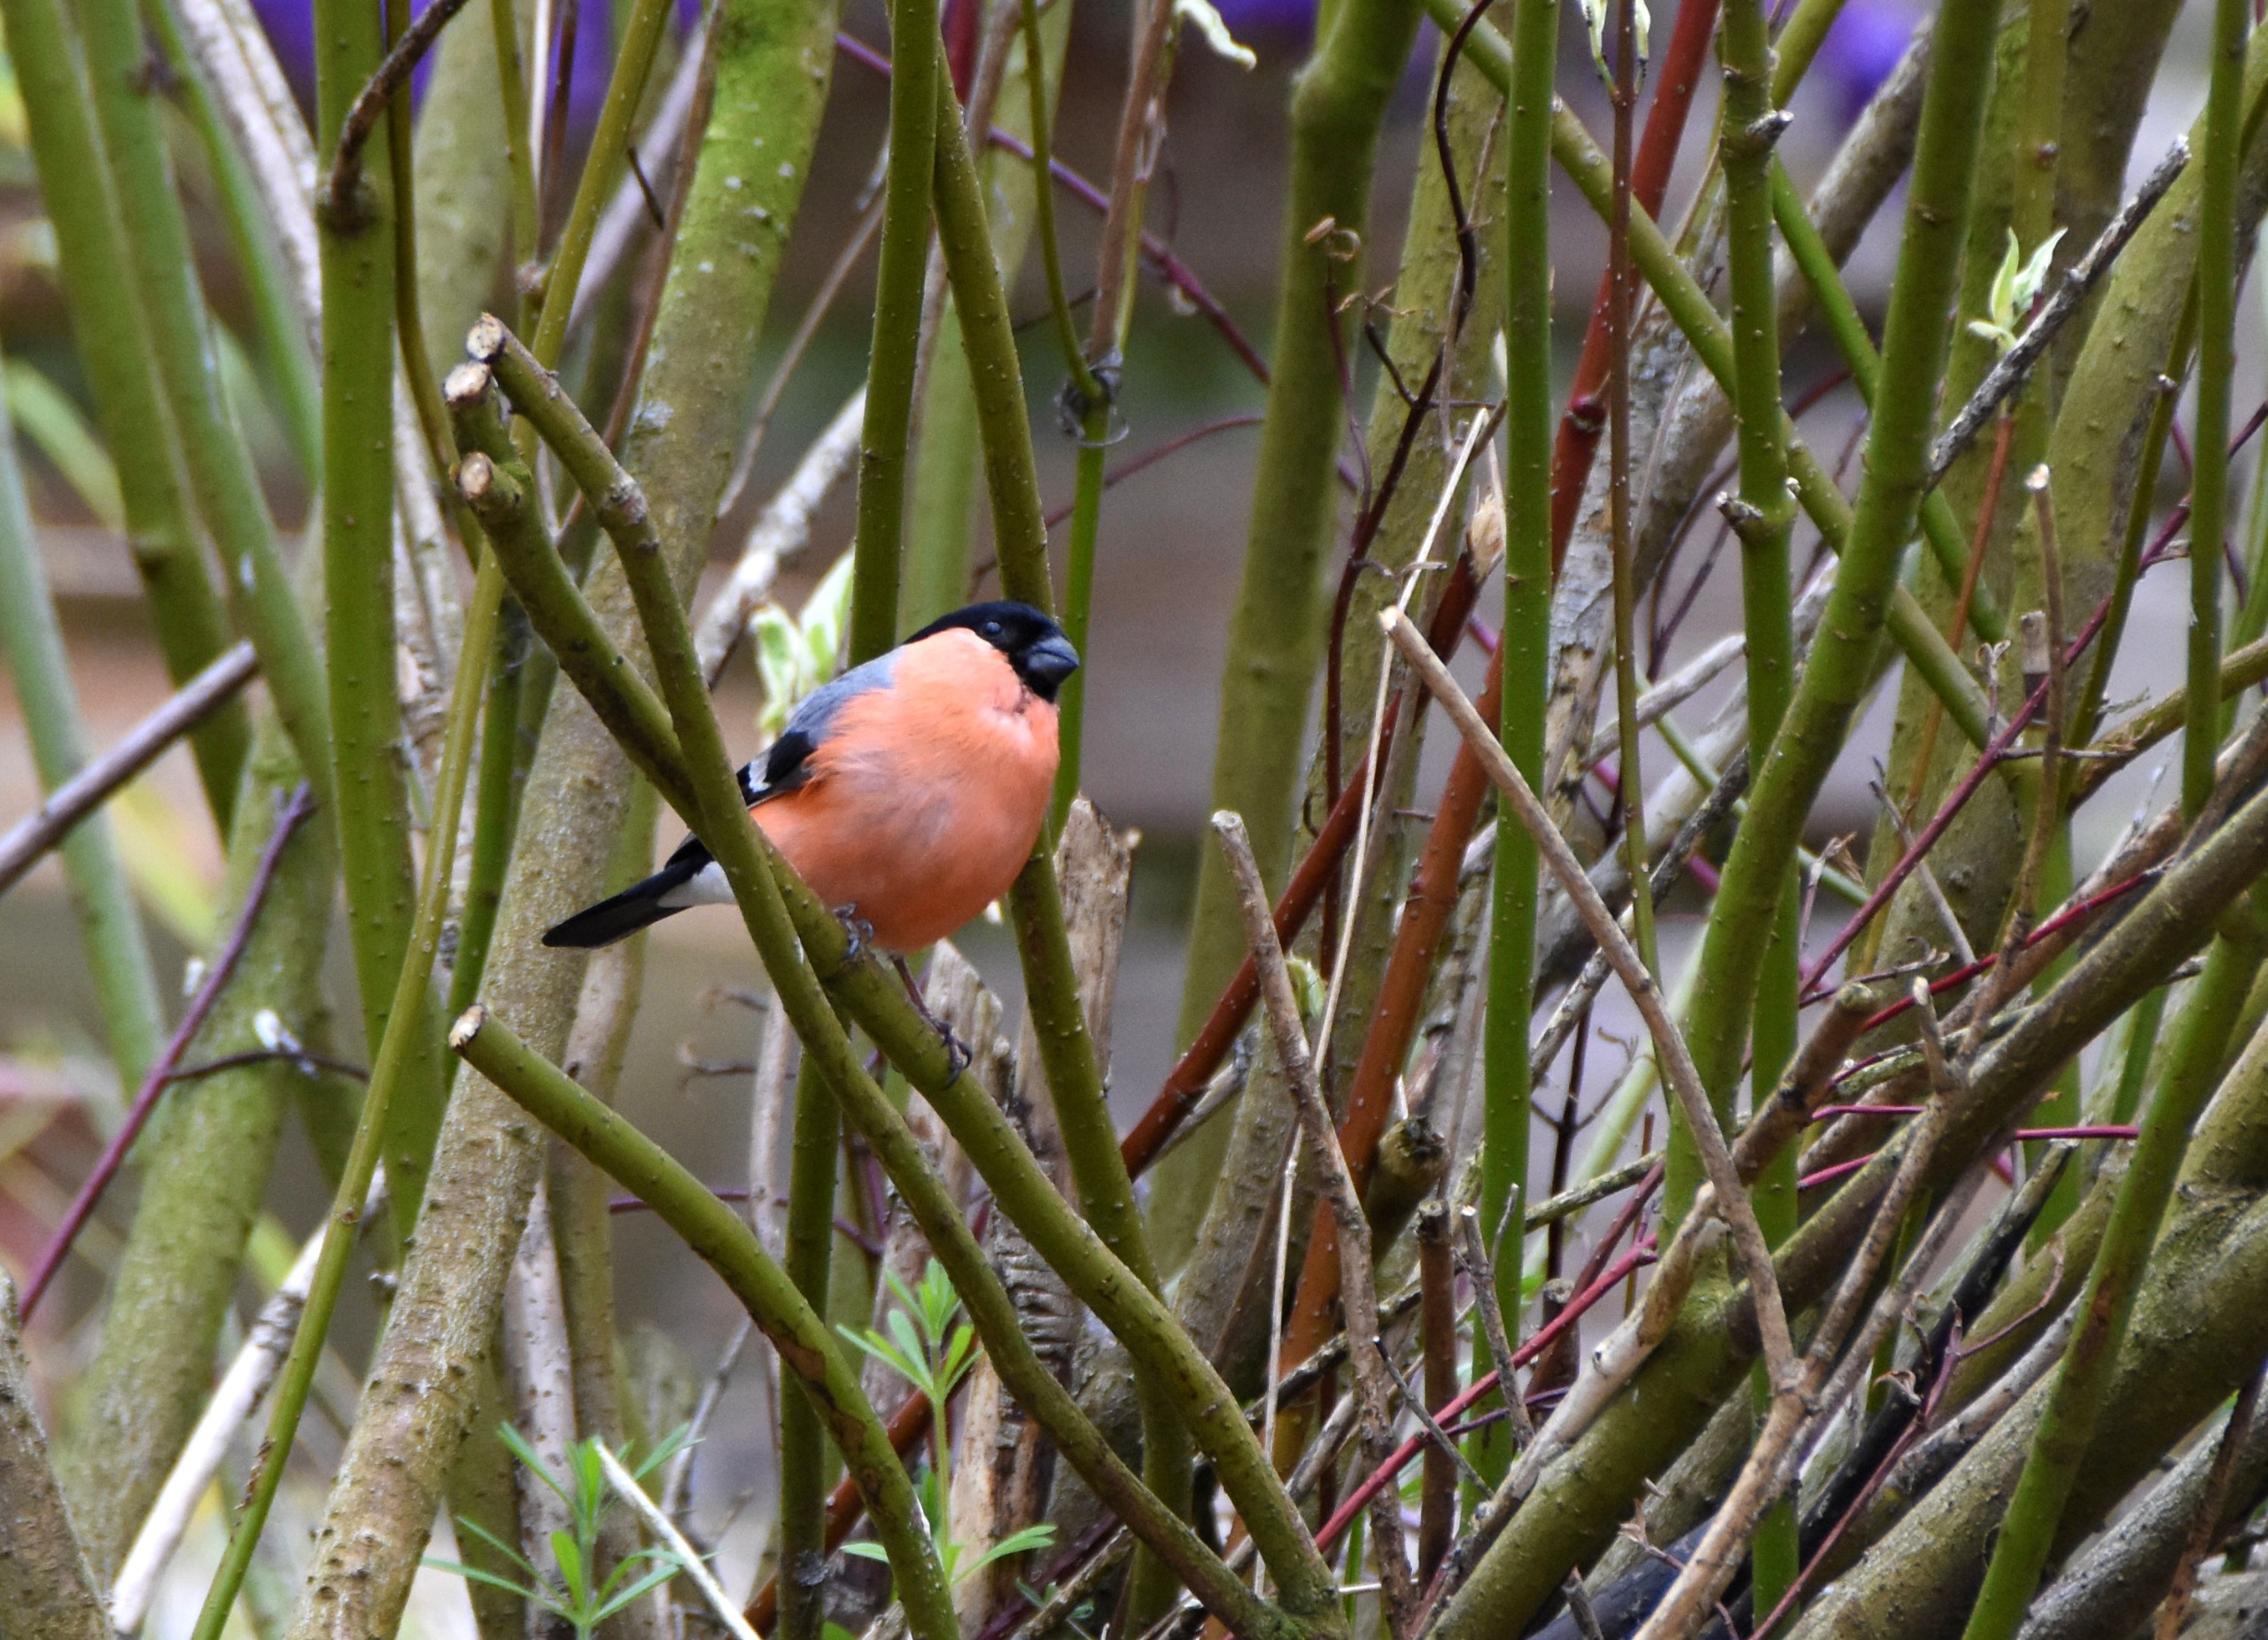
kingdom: Animalia
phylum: Chordata
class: Aves
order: Passeriformes
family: Fringillidae
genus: Pyrrhula
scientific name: Pyrrhula pyrrhula
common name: Dompap
